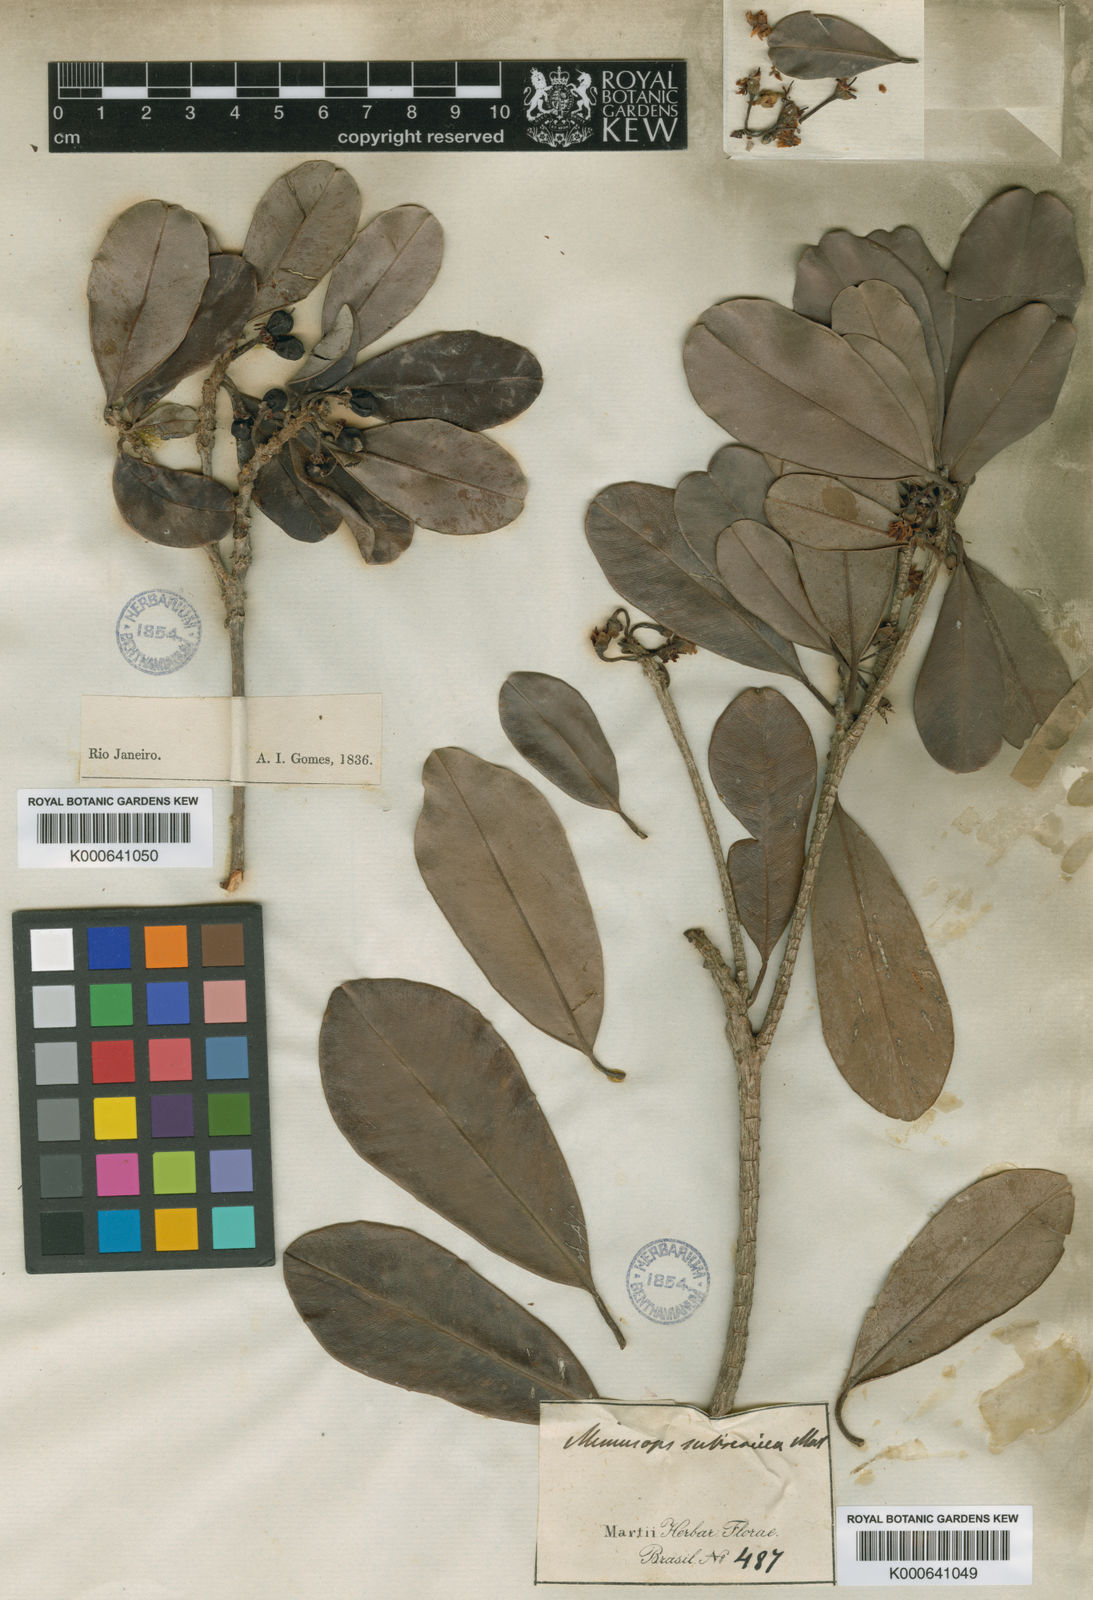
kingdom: Plantae
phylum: Tracheophyta
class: Magnoliopsida
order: Ericales
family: Sapotaceae
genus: Manilkara
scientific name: Manilkara subsericea
